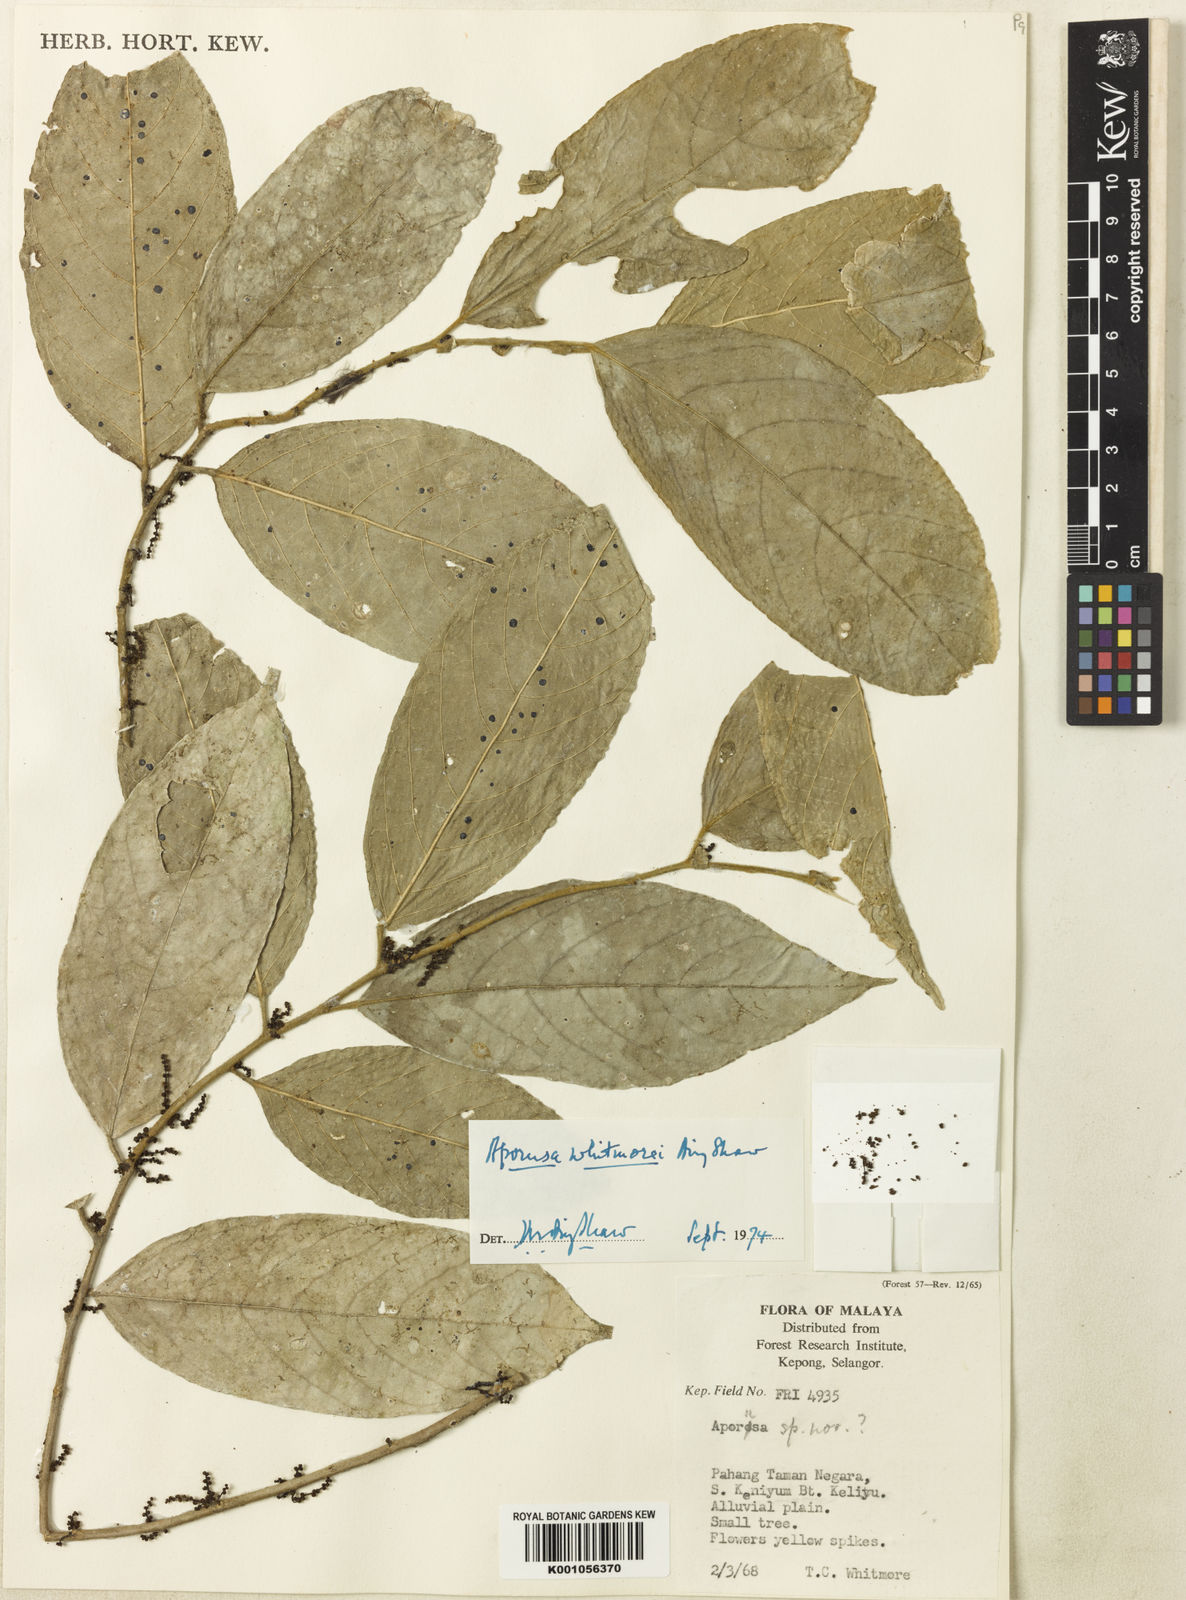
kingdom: Plantae
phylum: Tracheophyta
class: Magnoliopsida
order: Malpighiales
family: Phyllanthaceae
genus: Aporosa
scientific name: Aporosa whitmorei
